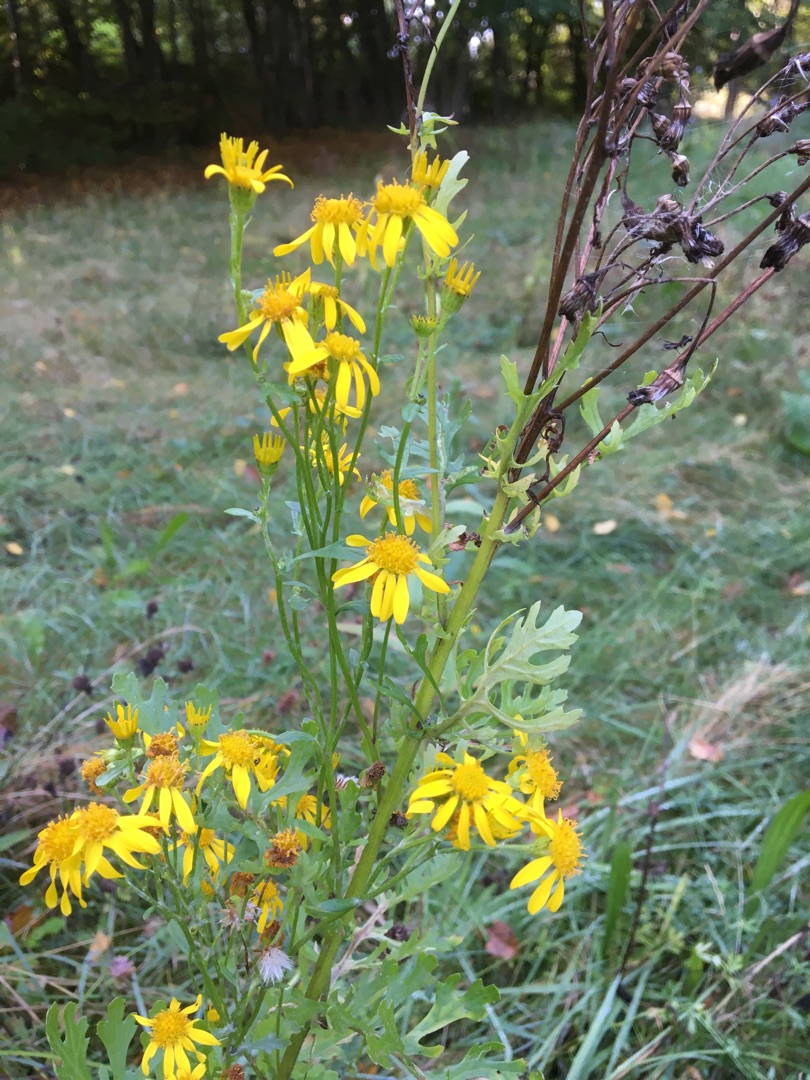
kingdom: Plantae
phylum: Tracheophyta
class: Magnoliopsida
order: Asterales
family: Asteraceae
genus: Jacobaea
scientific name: Jacobaea vulgaris
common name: Eng-brandbæger
